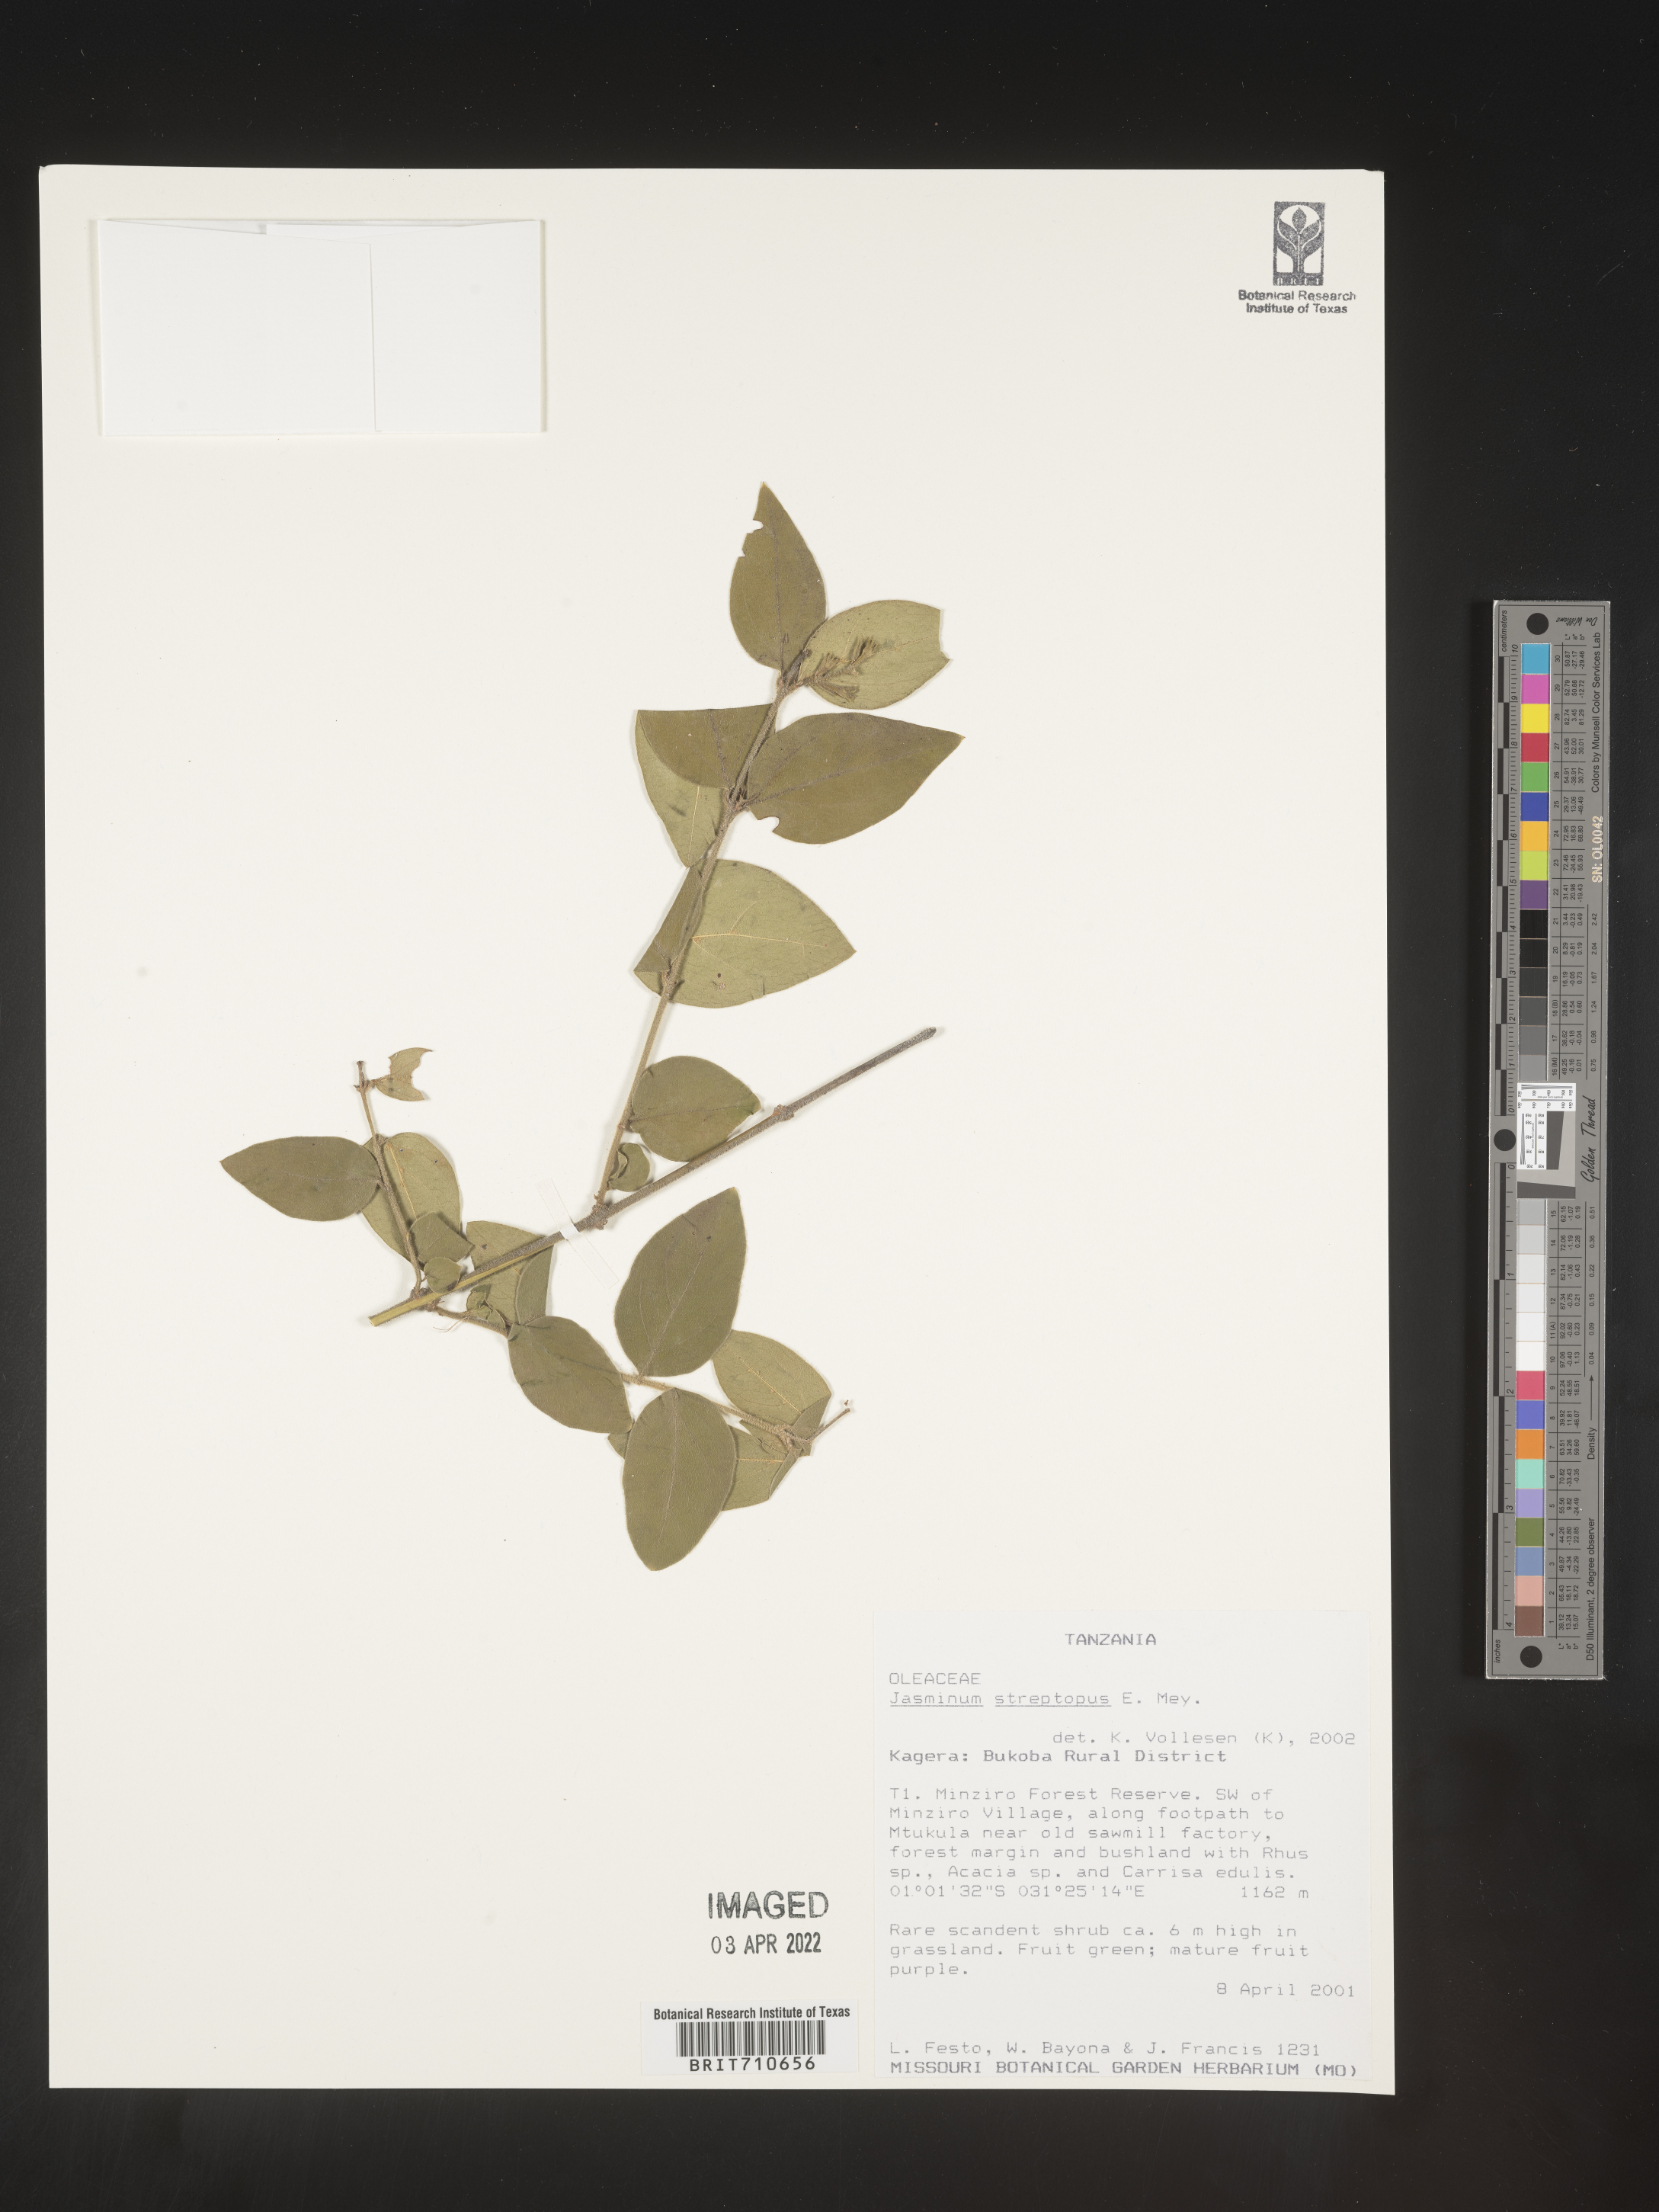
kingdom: Plantae
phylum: Tracheophyta
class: Magnoliopsida
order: Lamiales
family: Oleaceae
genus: Jasminum
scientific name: Jasminum
